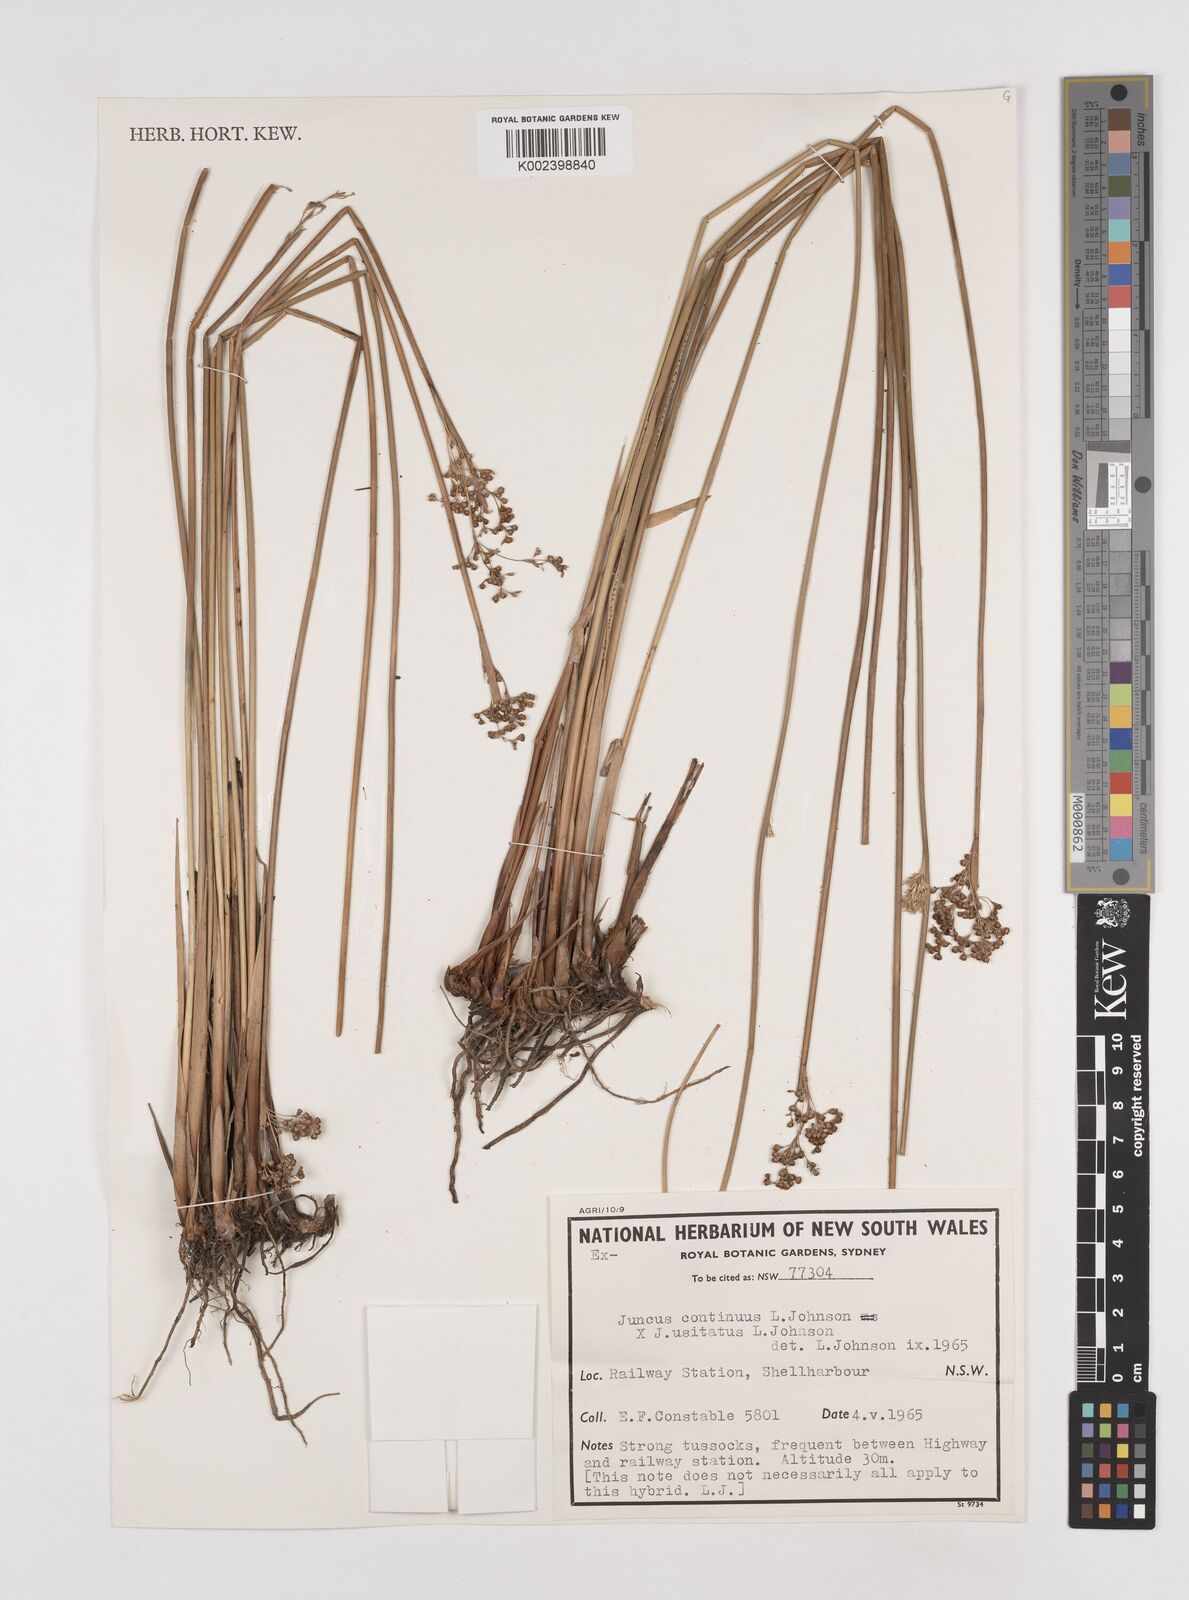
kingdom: Plantae
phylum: Tracheophyta
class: Liliopsida
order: Poales
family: Juncaceae
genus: Juncus
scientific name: Juncus continuus
